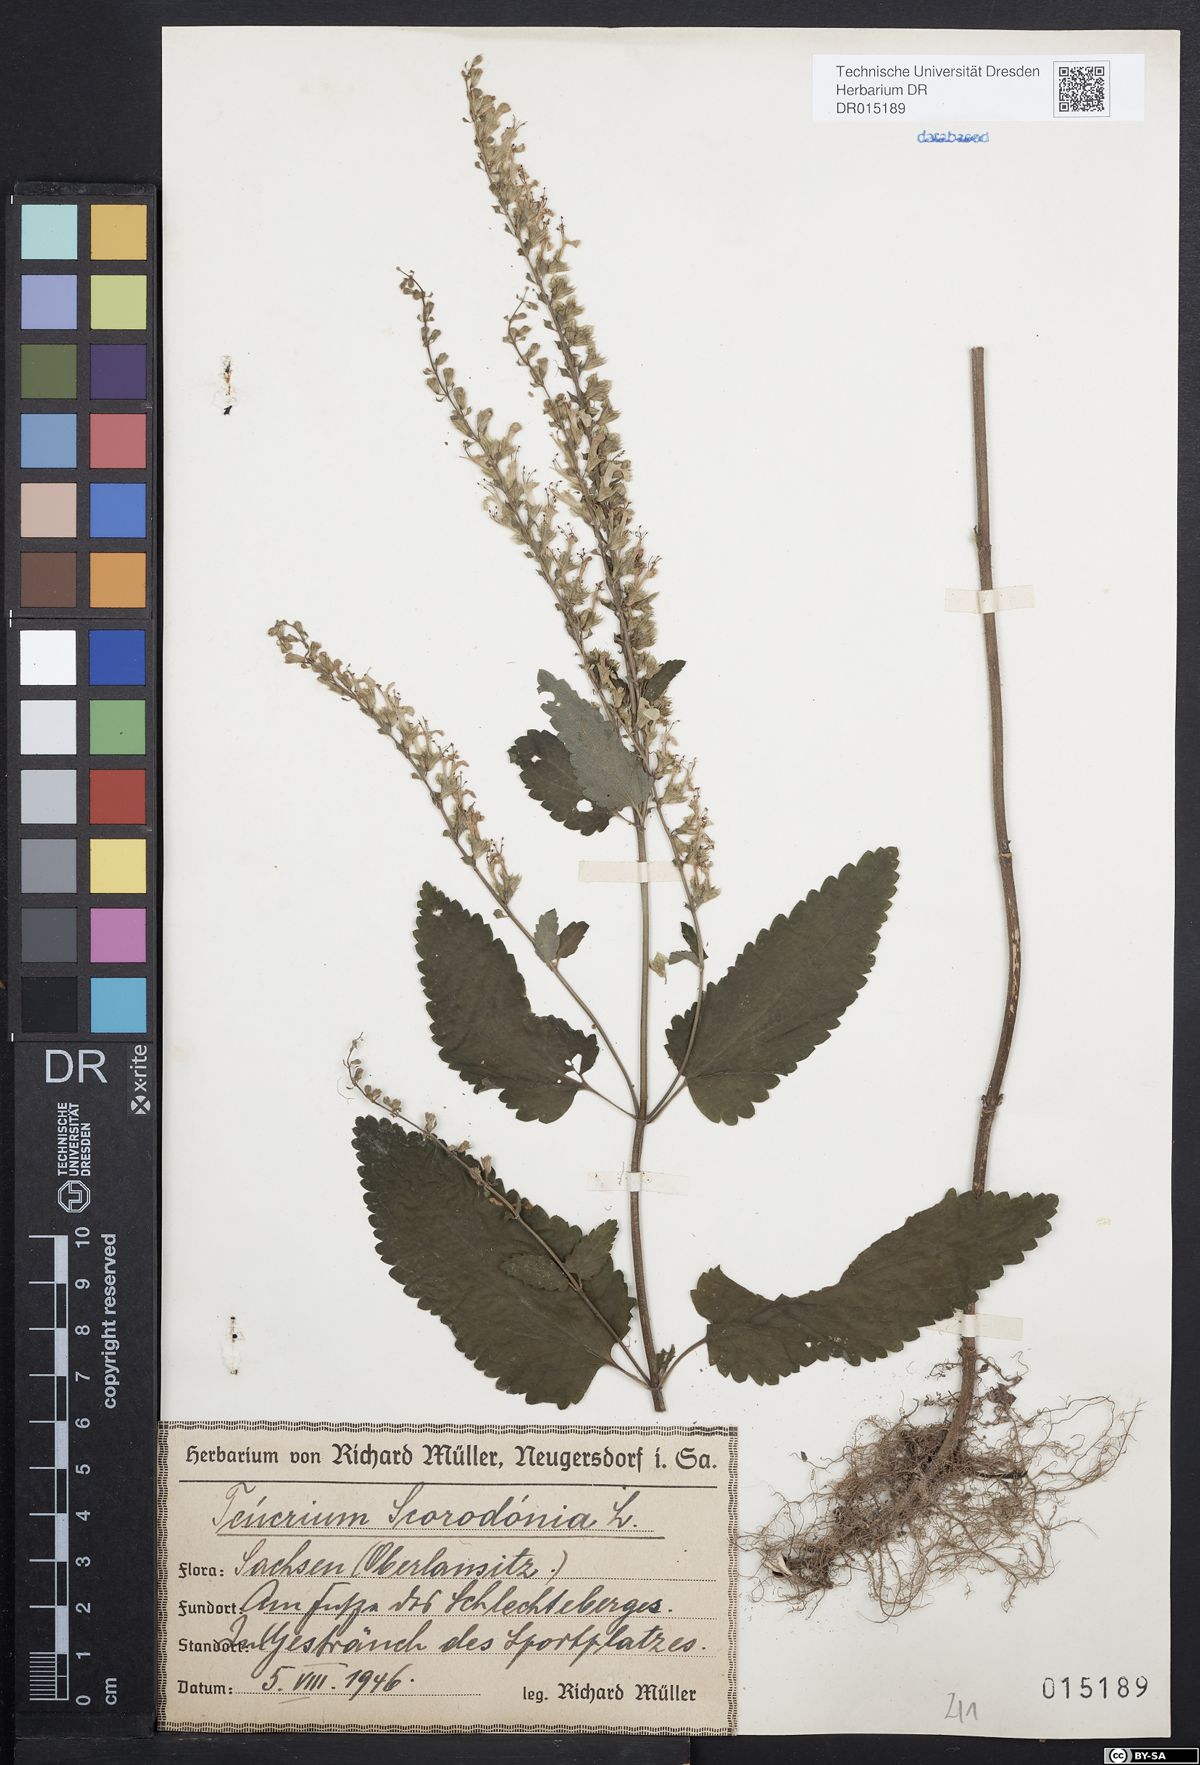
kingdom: Plantae
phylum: Tracheophyta
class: Magnoliopsida
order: Lamiales
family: Lamiaceae
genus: Teucrium
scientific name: Teucrium scorodonia
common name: Woodland germander
